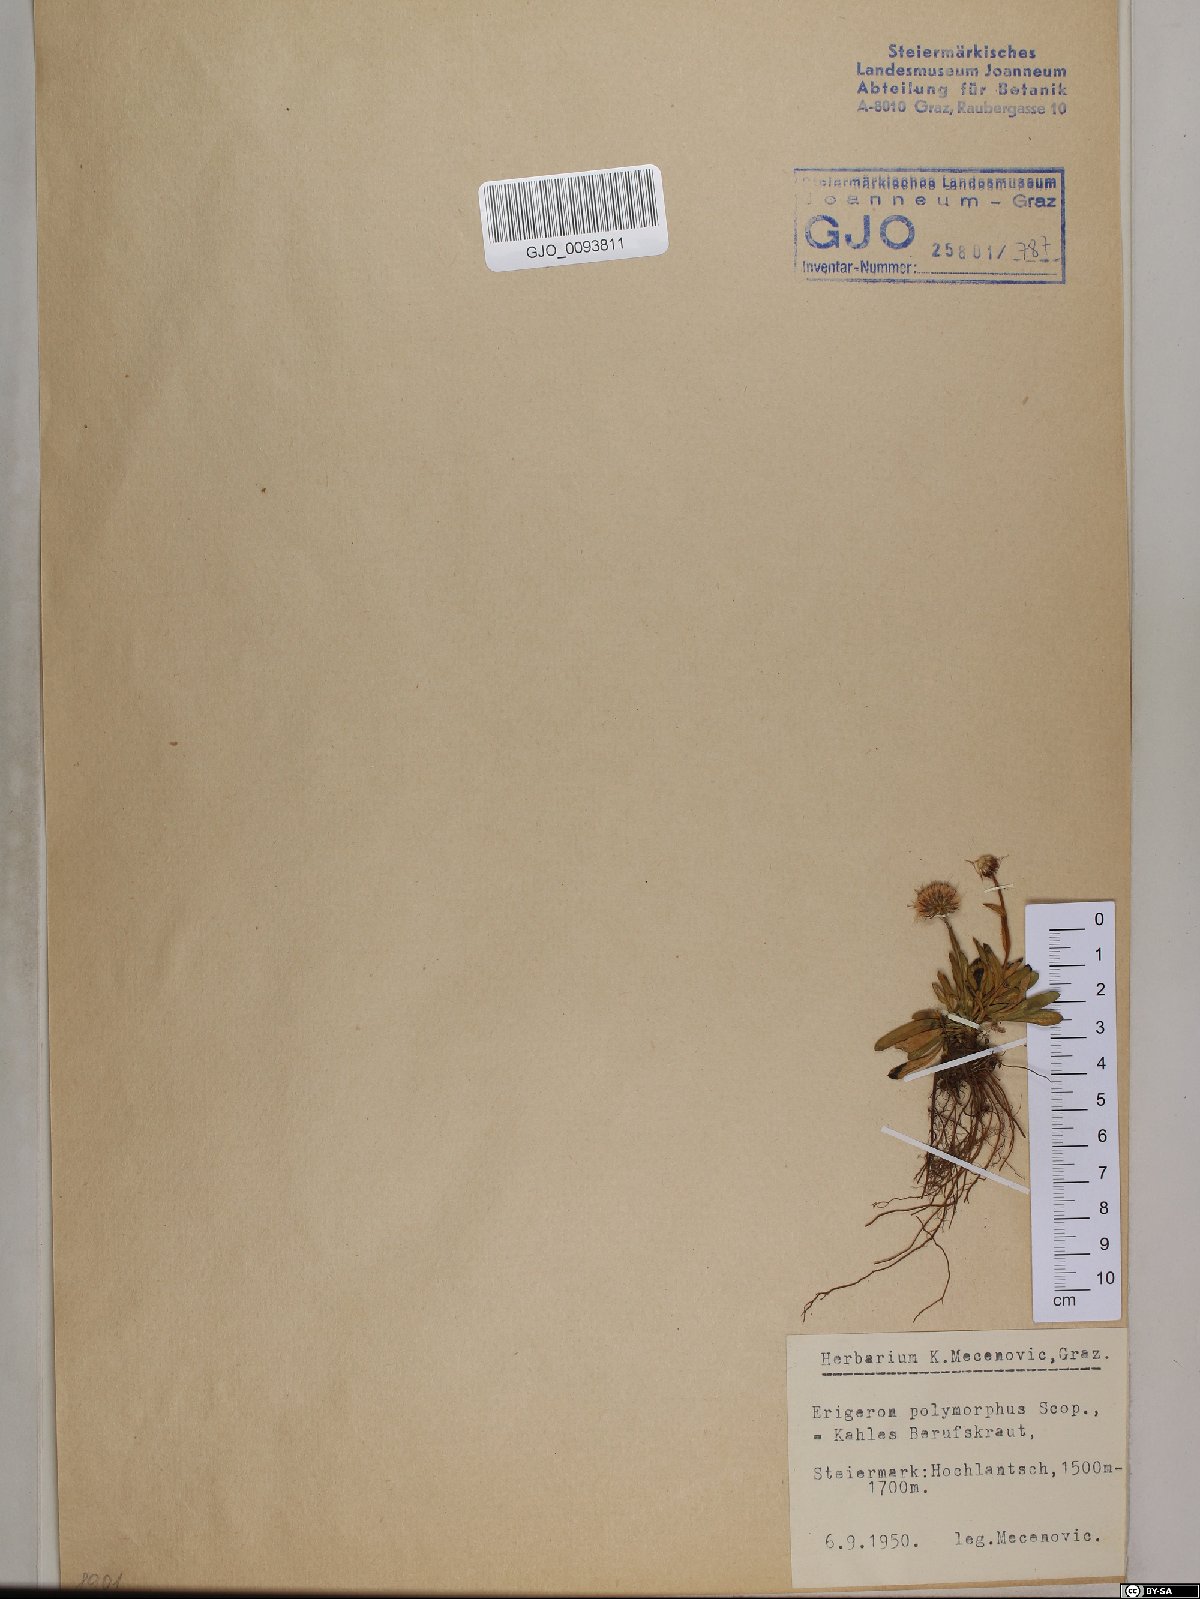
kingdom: Plantae
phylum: Tracheophyta
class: Magnoliopsida
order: Asterales
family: Asteraceae
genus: Erigeron
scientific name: Erigeron alpinus
